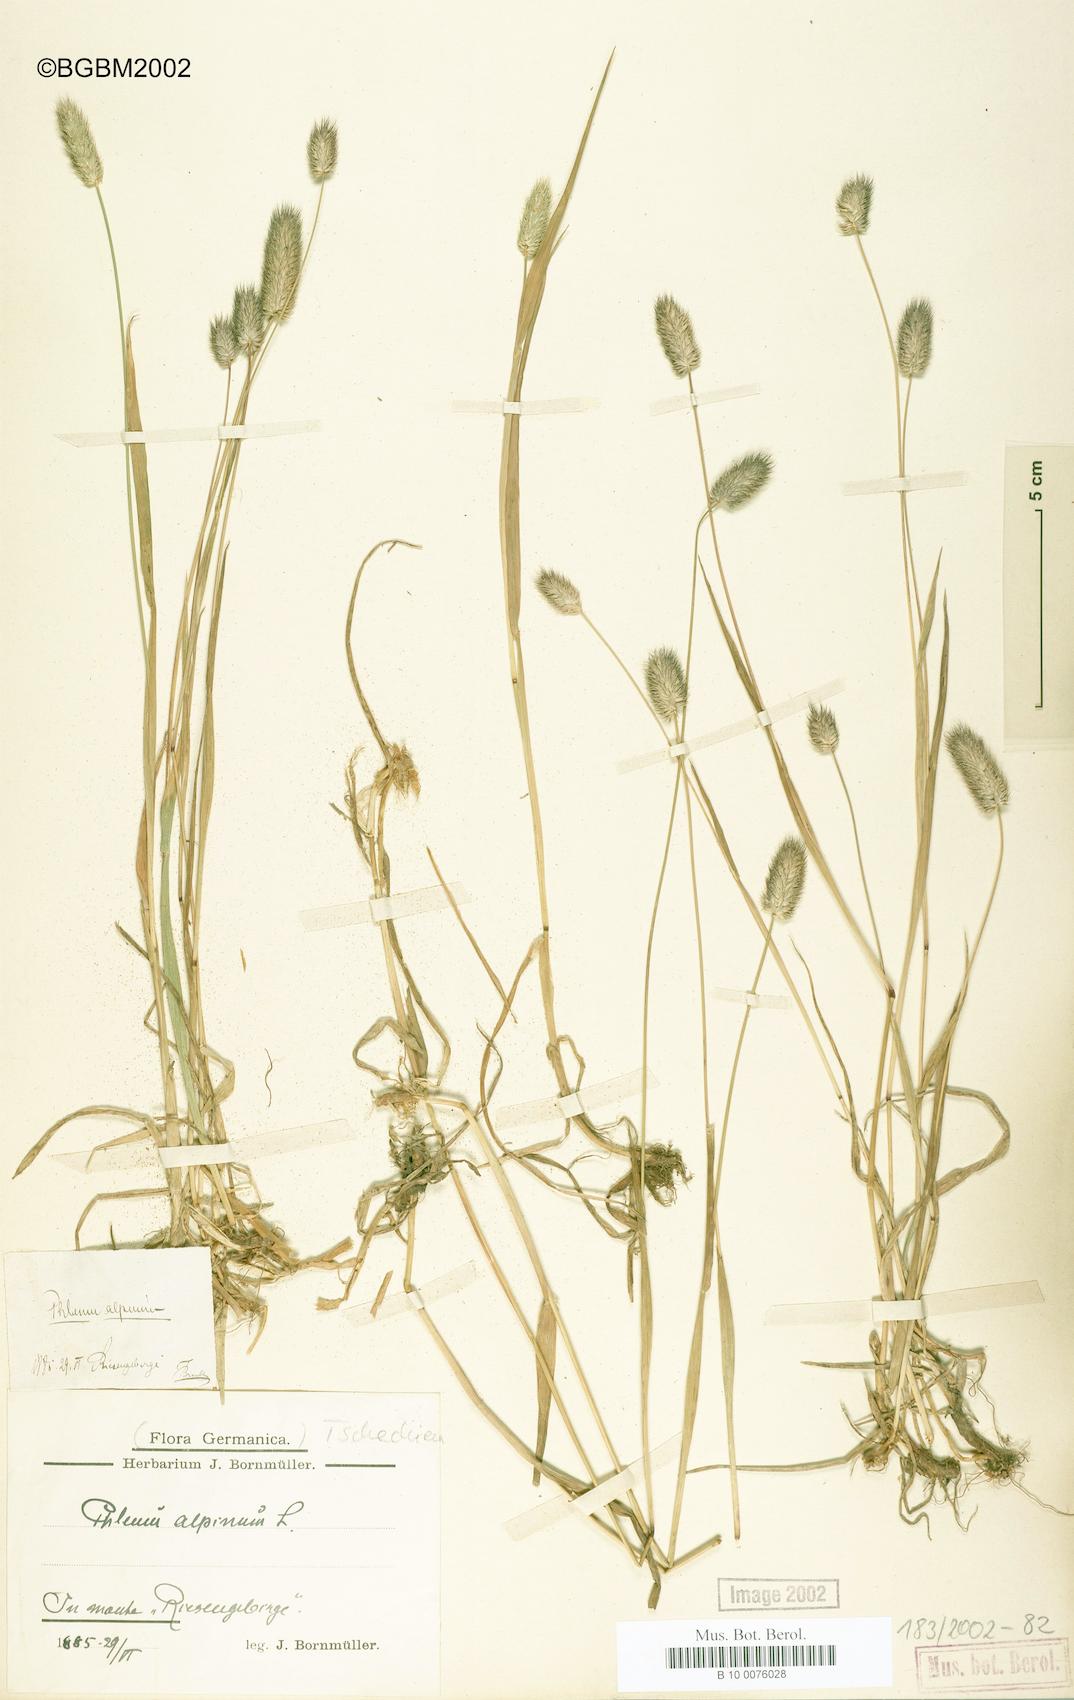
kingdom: Plantae
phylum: Tracheophyta
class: Liliopsida
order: Poales
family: Poaceae
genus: Phleum
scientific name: Phleum alpinum
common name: Alpine cat's-tail
